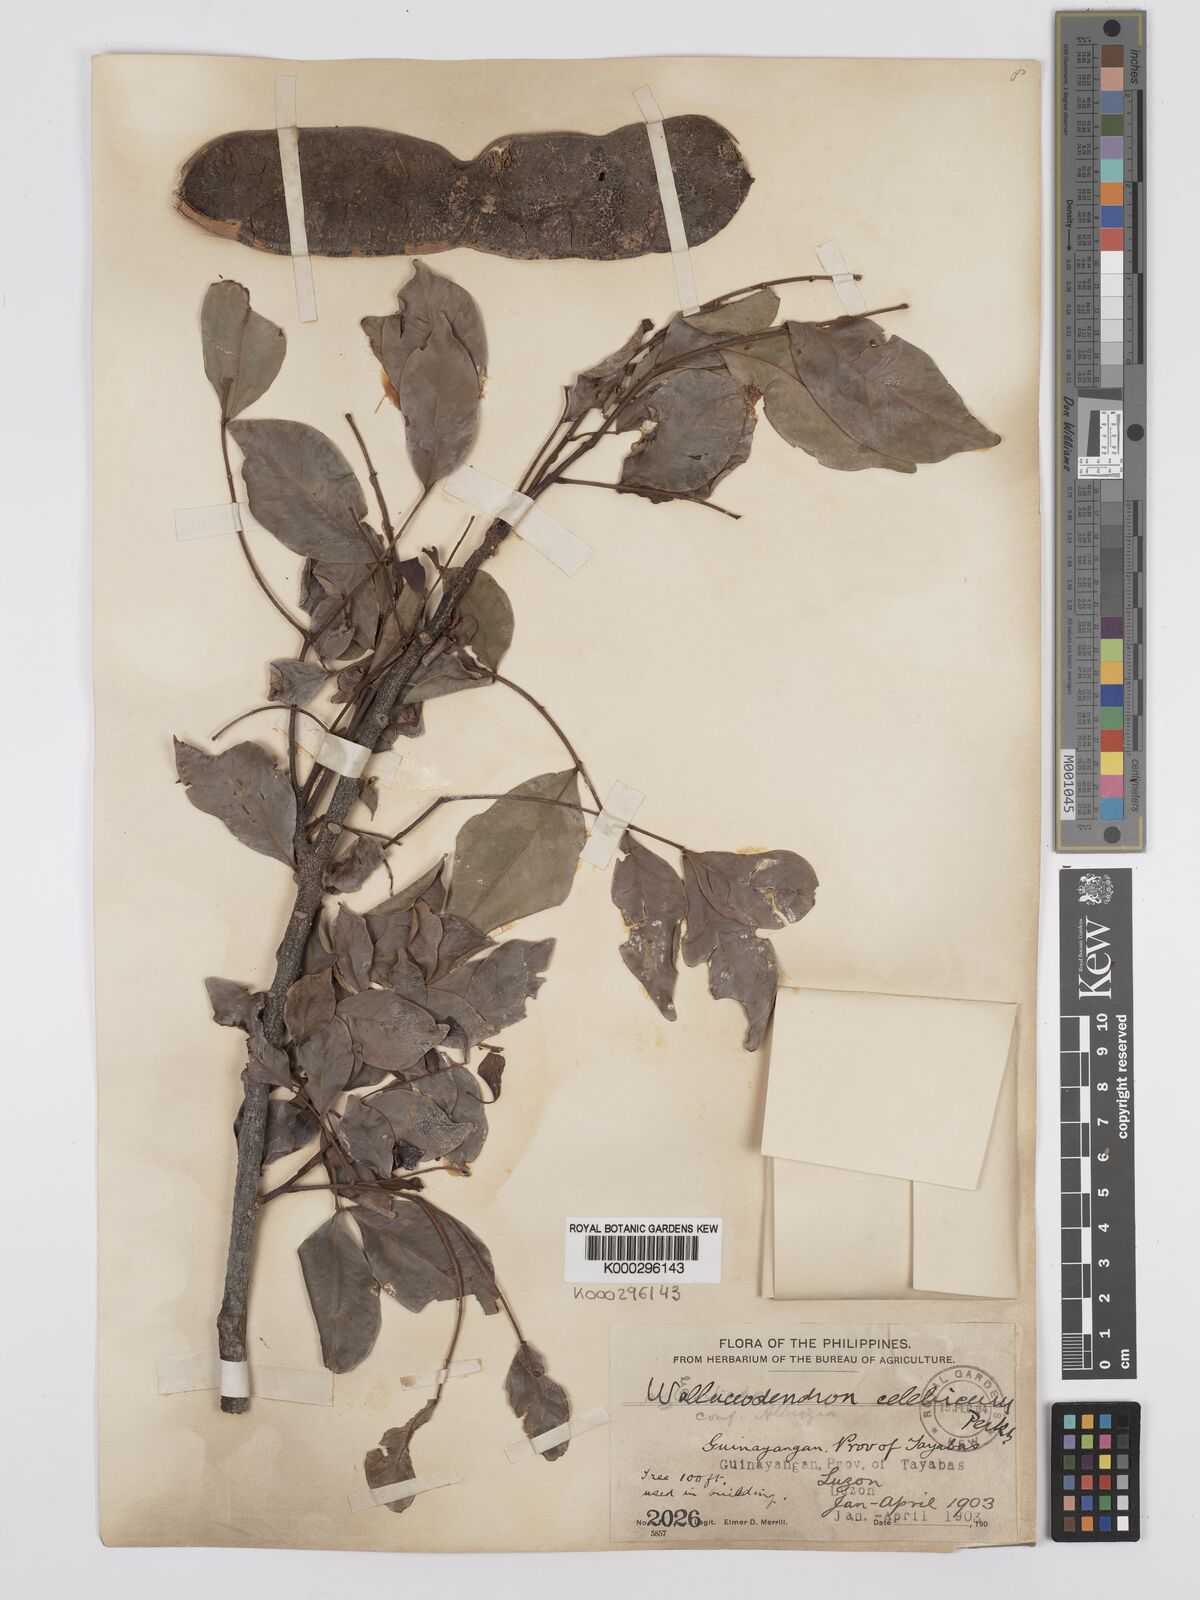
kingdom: Plantae
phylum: Tracheophyta
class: Magnoliopsida
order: Fabales
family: Fabaceae
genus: Wallaceodendron
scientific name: Wallaceodendron celebicum
